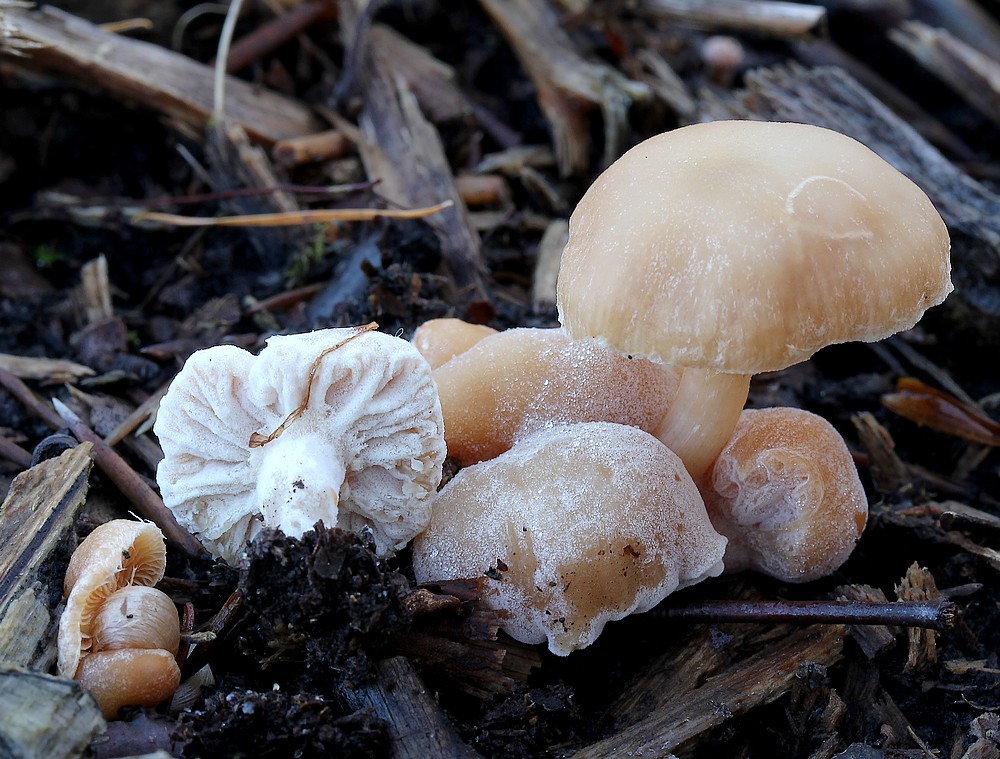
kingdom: Fungi
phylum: Ascomycota
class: Sordariomycetes
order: Hypocreales
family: Hypocreaceae
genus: Hypomyces
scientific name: Hypomyces tubariicola
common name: fnughat-snylteskorpe
